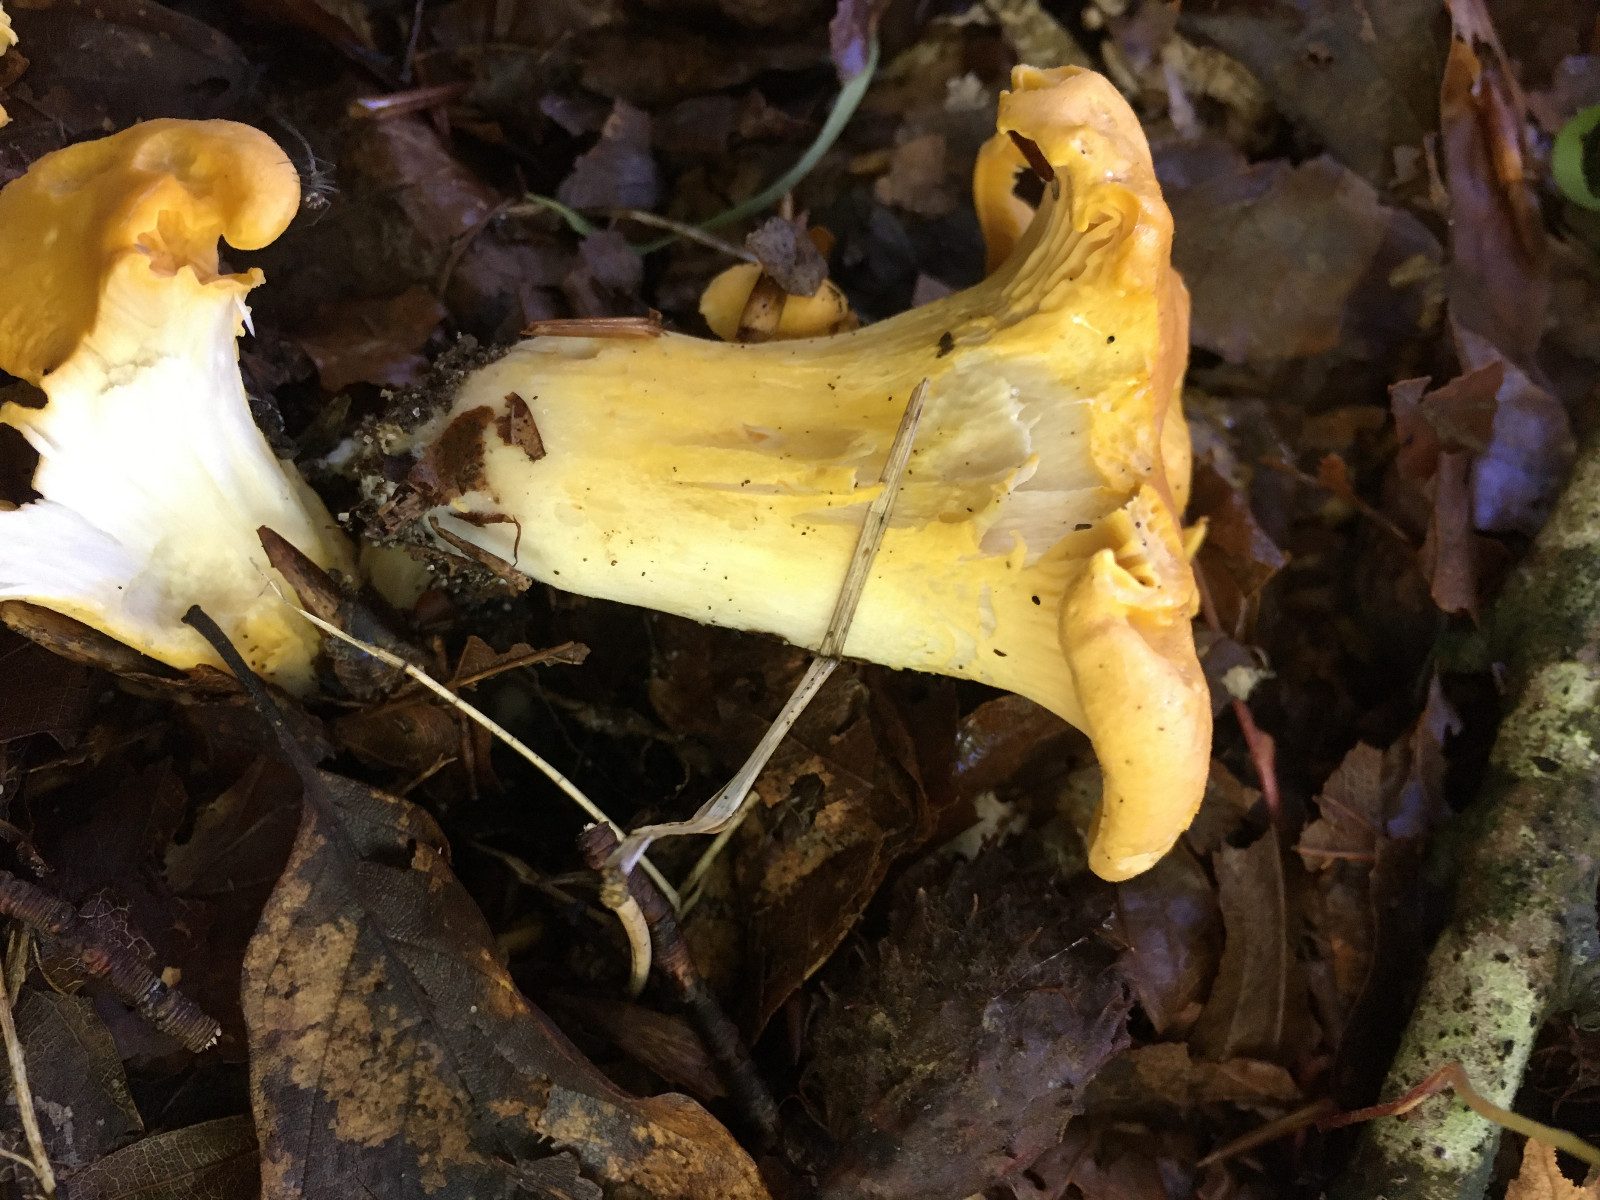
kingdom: Fungi
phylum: Basidiomycota
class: Agaricomycetes
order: Cantharellales
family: Hydnaceae
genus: Cantharellus
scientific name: Cantharellus pallens
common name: bleg kantarel
